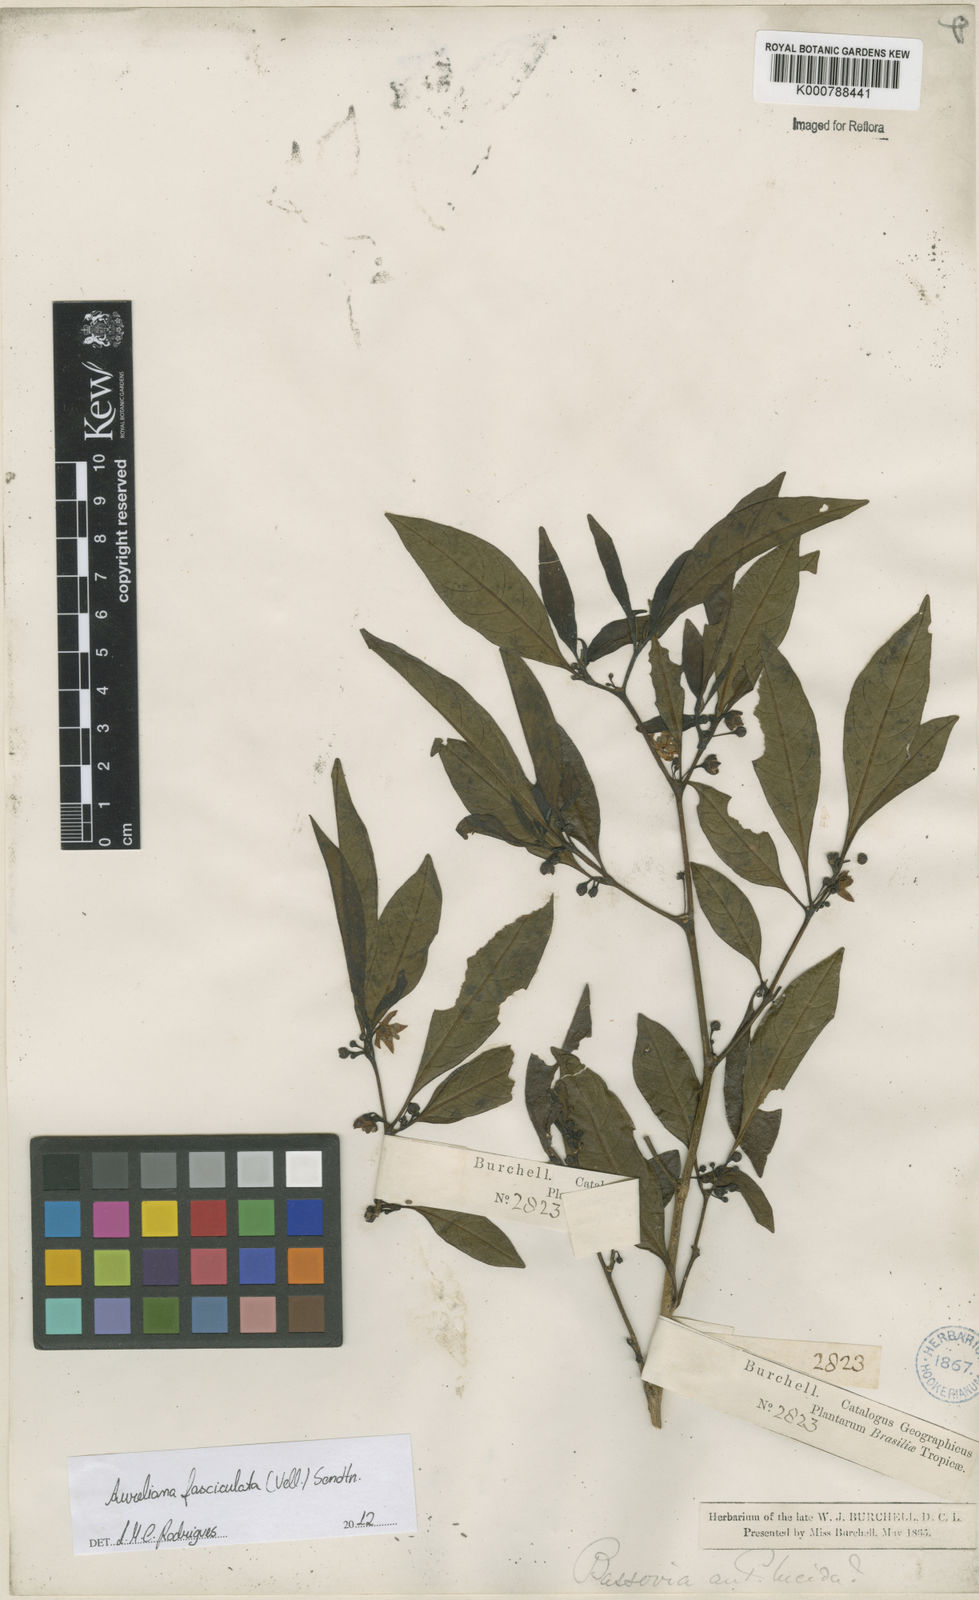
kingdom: Plantae
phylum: Tracheophyta
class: Magnoliopsida
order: Solanales
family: Solanaceae
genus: Athenaea
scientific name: Athenaea fasciculata
